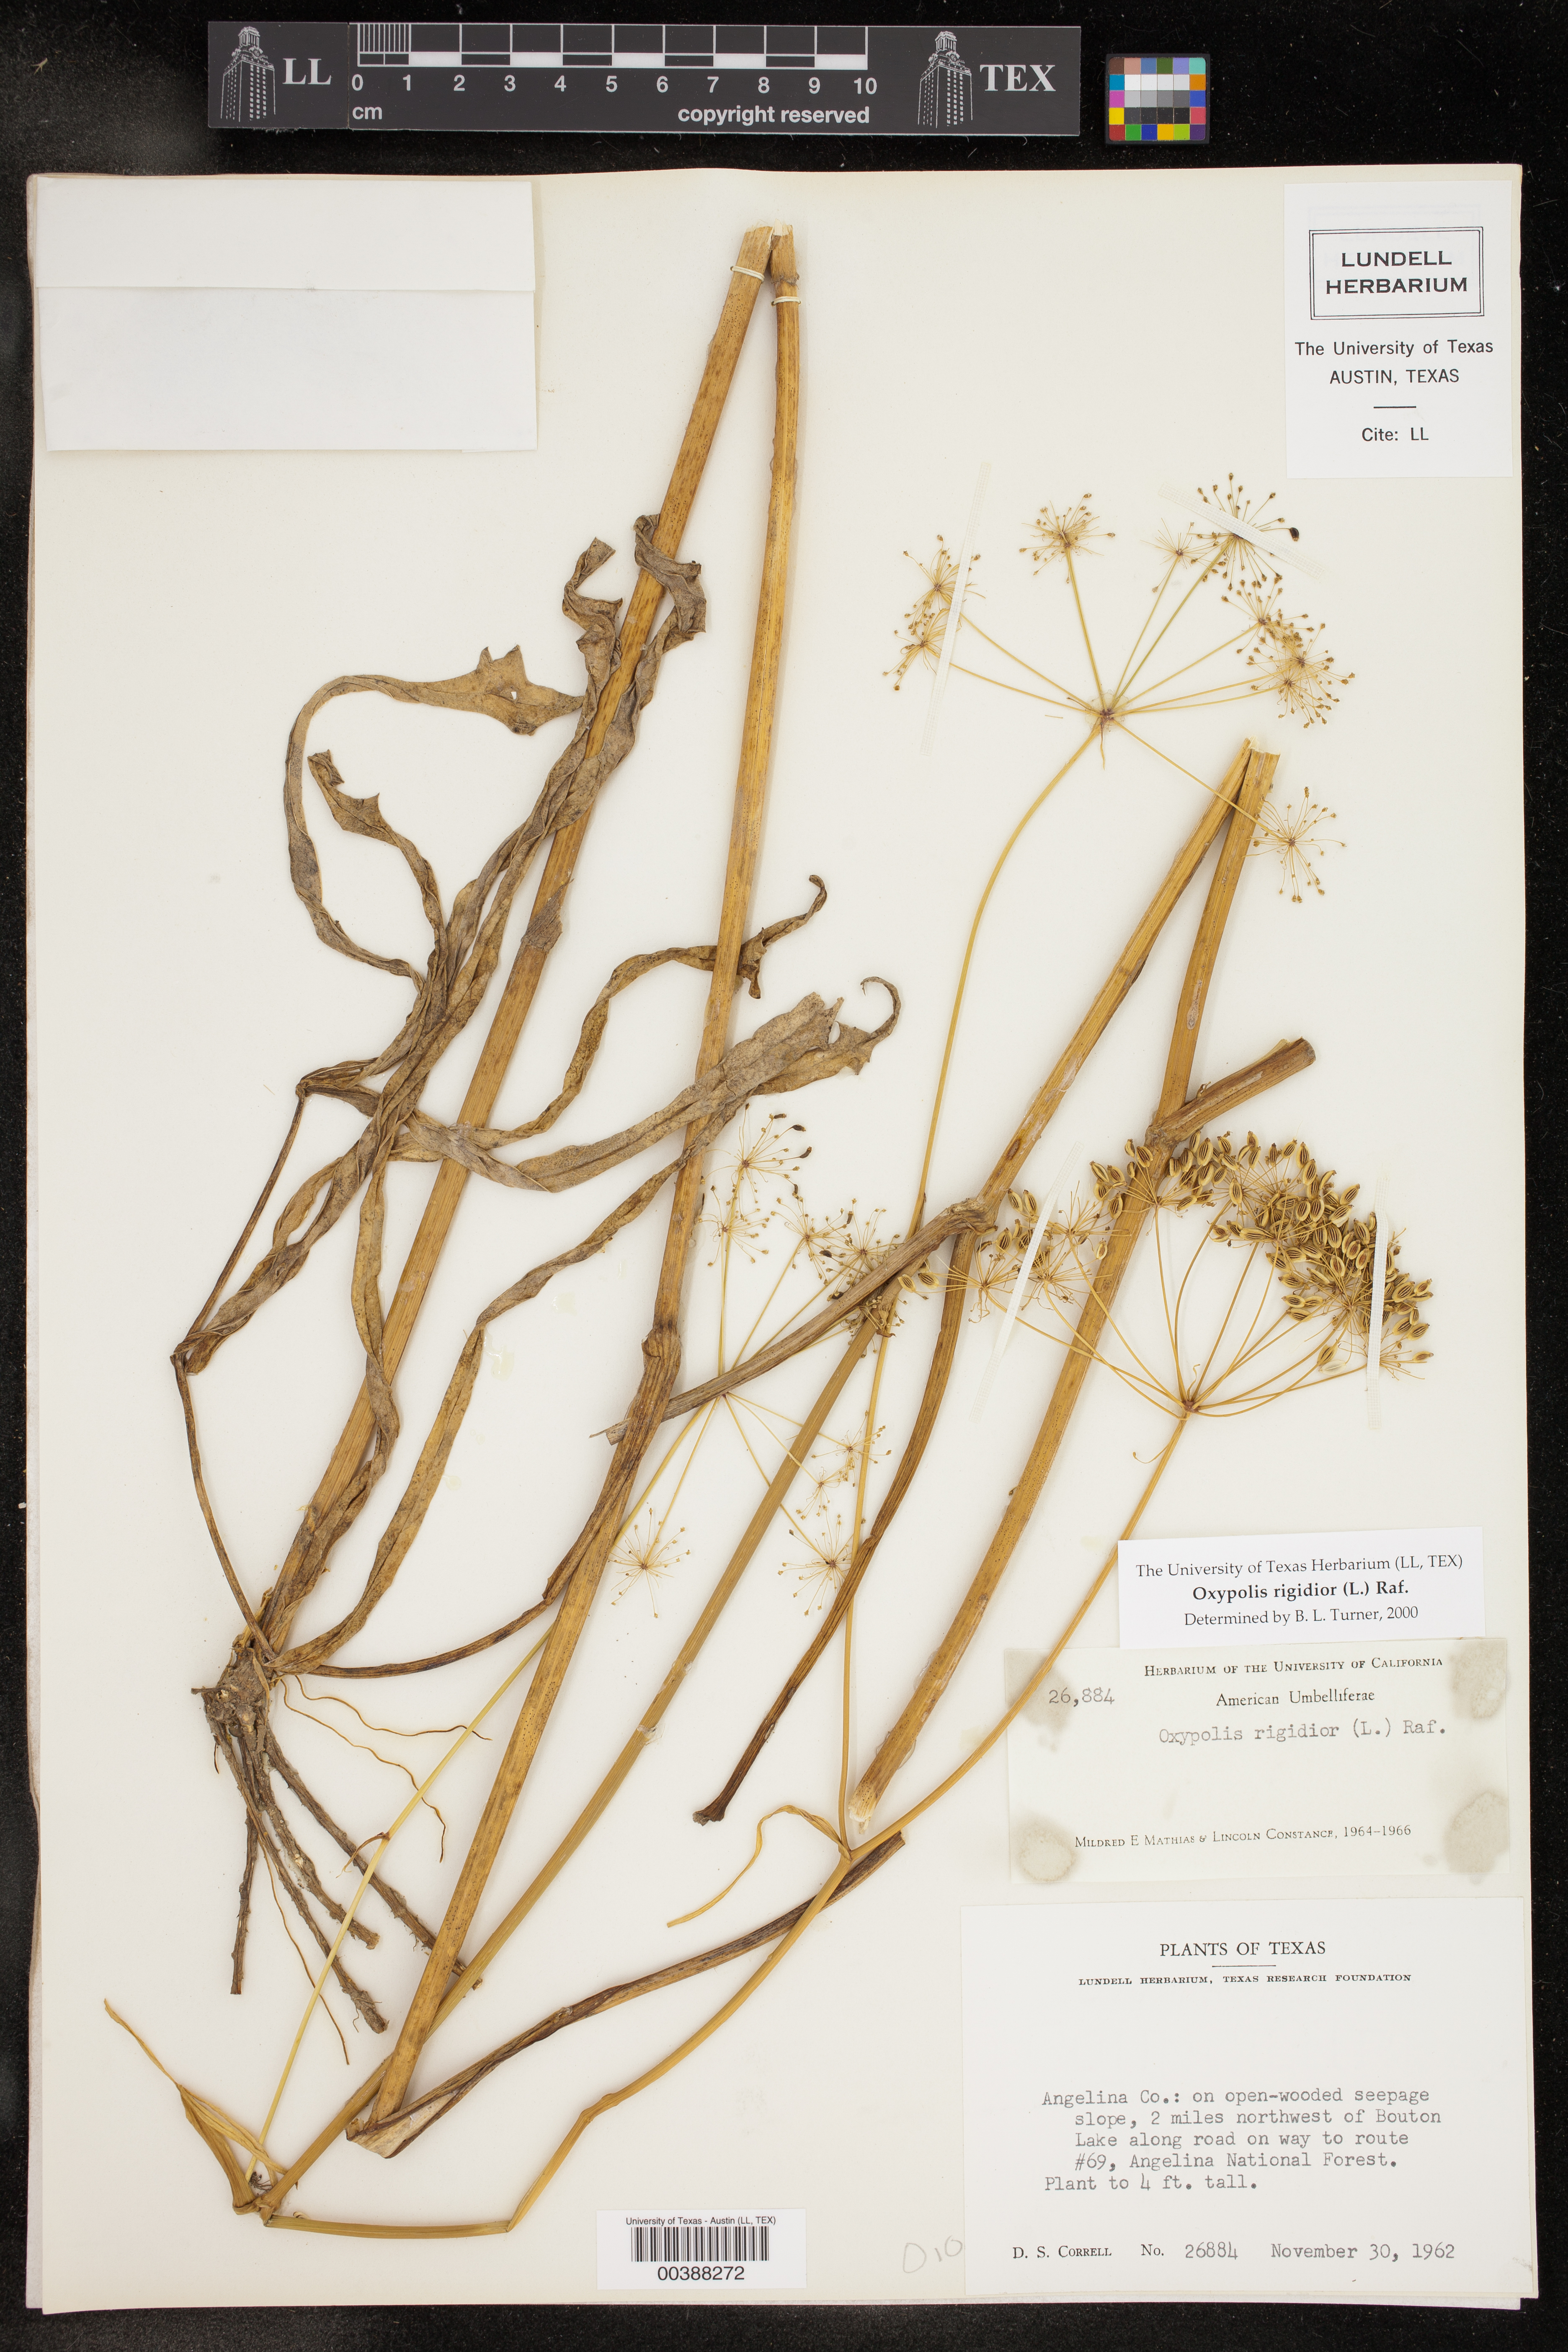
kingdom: Plantae
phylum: Tracheophyta
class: Magnoliopsida
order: Apiales
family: Apiaceae
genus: Oxypolis
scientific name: Oxypolis rigidior
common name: Cowbane
